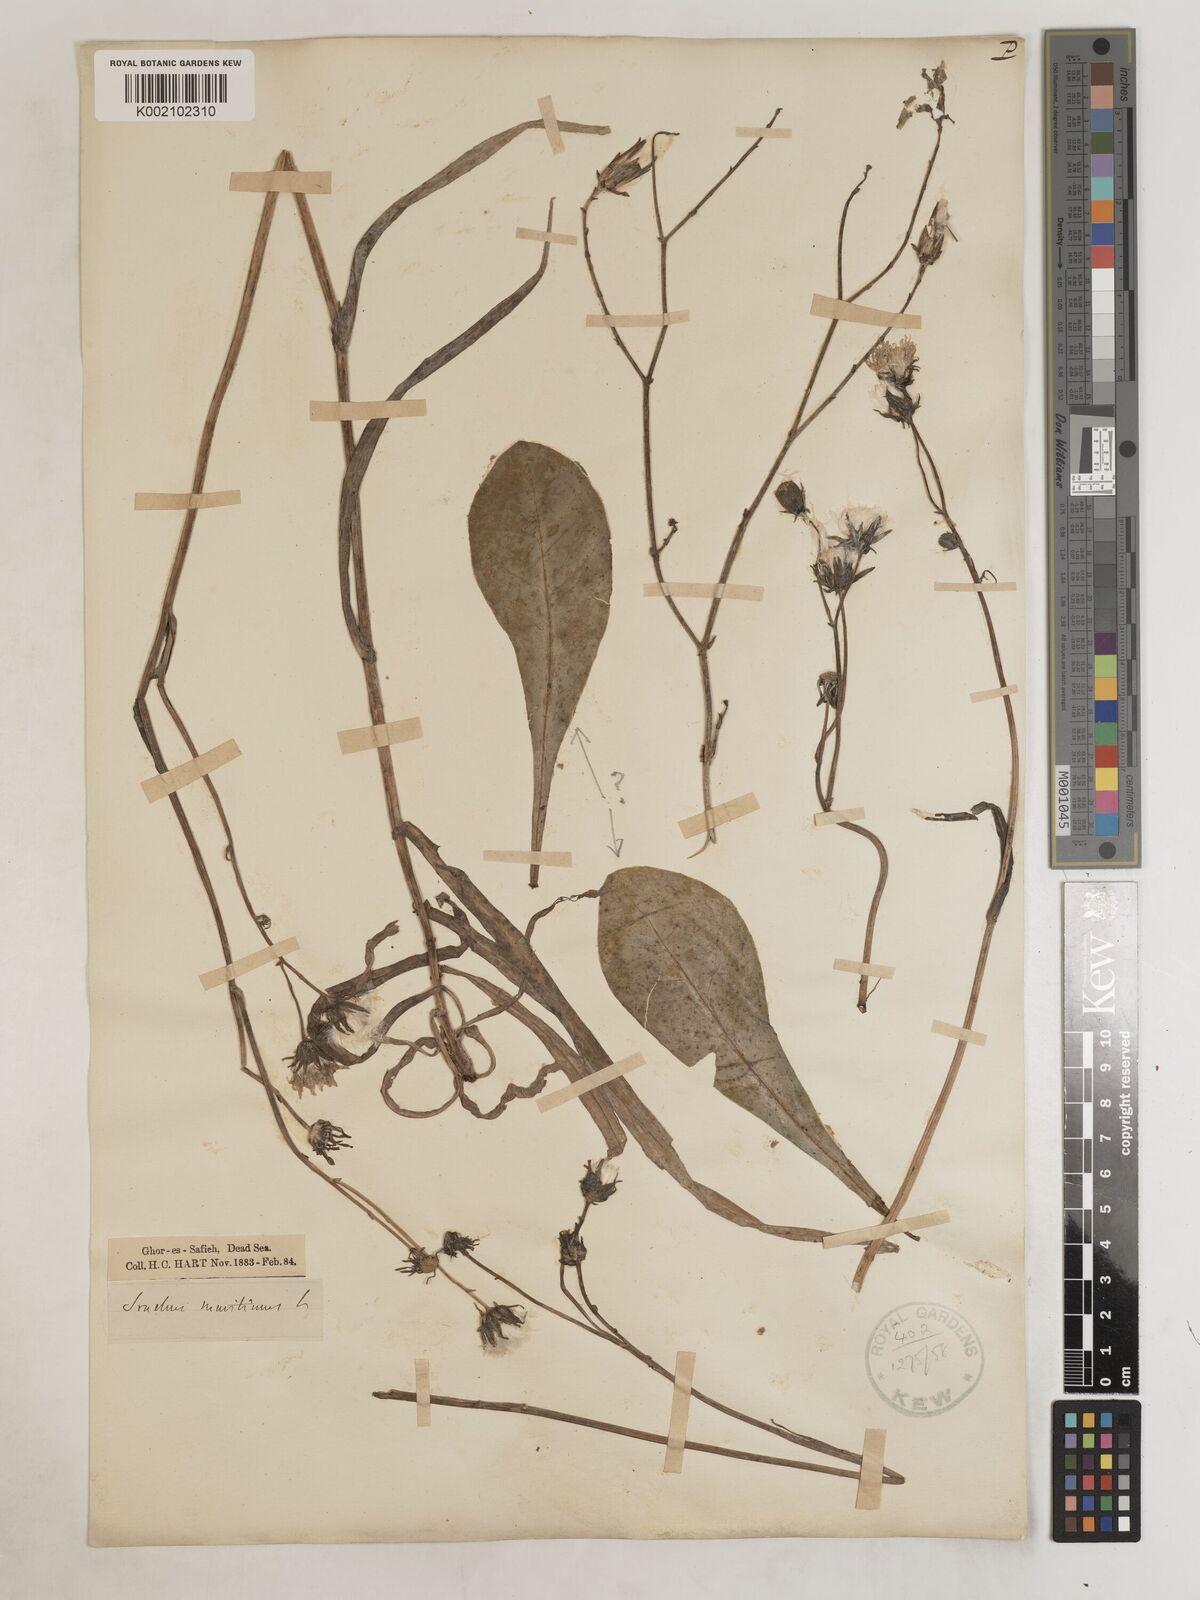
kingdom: Plantae
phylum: Tracheophyta
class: Magnoliopsida
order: Asterales
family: Asteraceae
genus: Sonchus
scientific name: Sonchus maritimus
